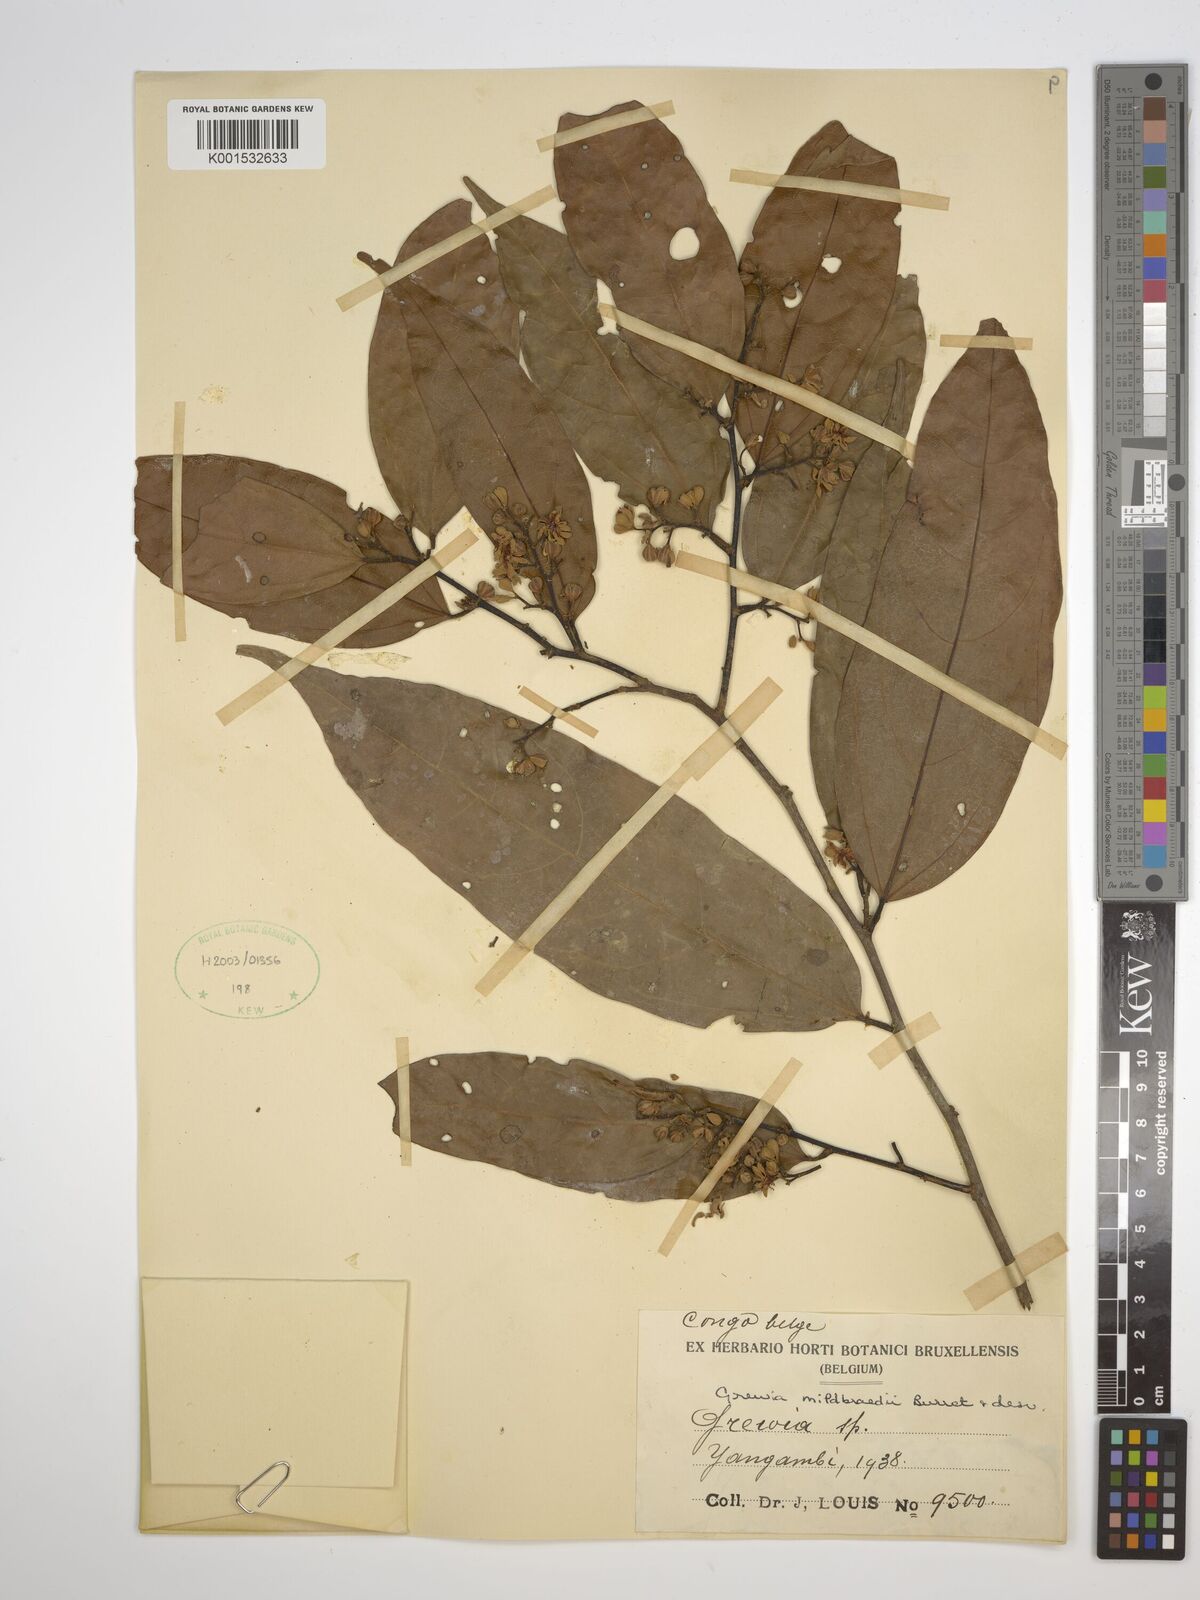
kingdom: Plantae
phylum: Tracheophyta
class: Magnoliopsida
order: Malvales
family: Malvaceae
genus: Microcos
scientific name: Microcos mildbraedii
